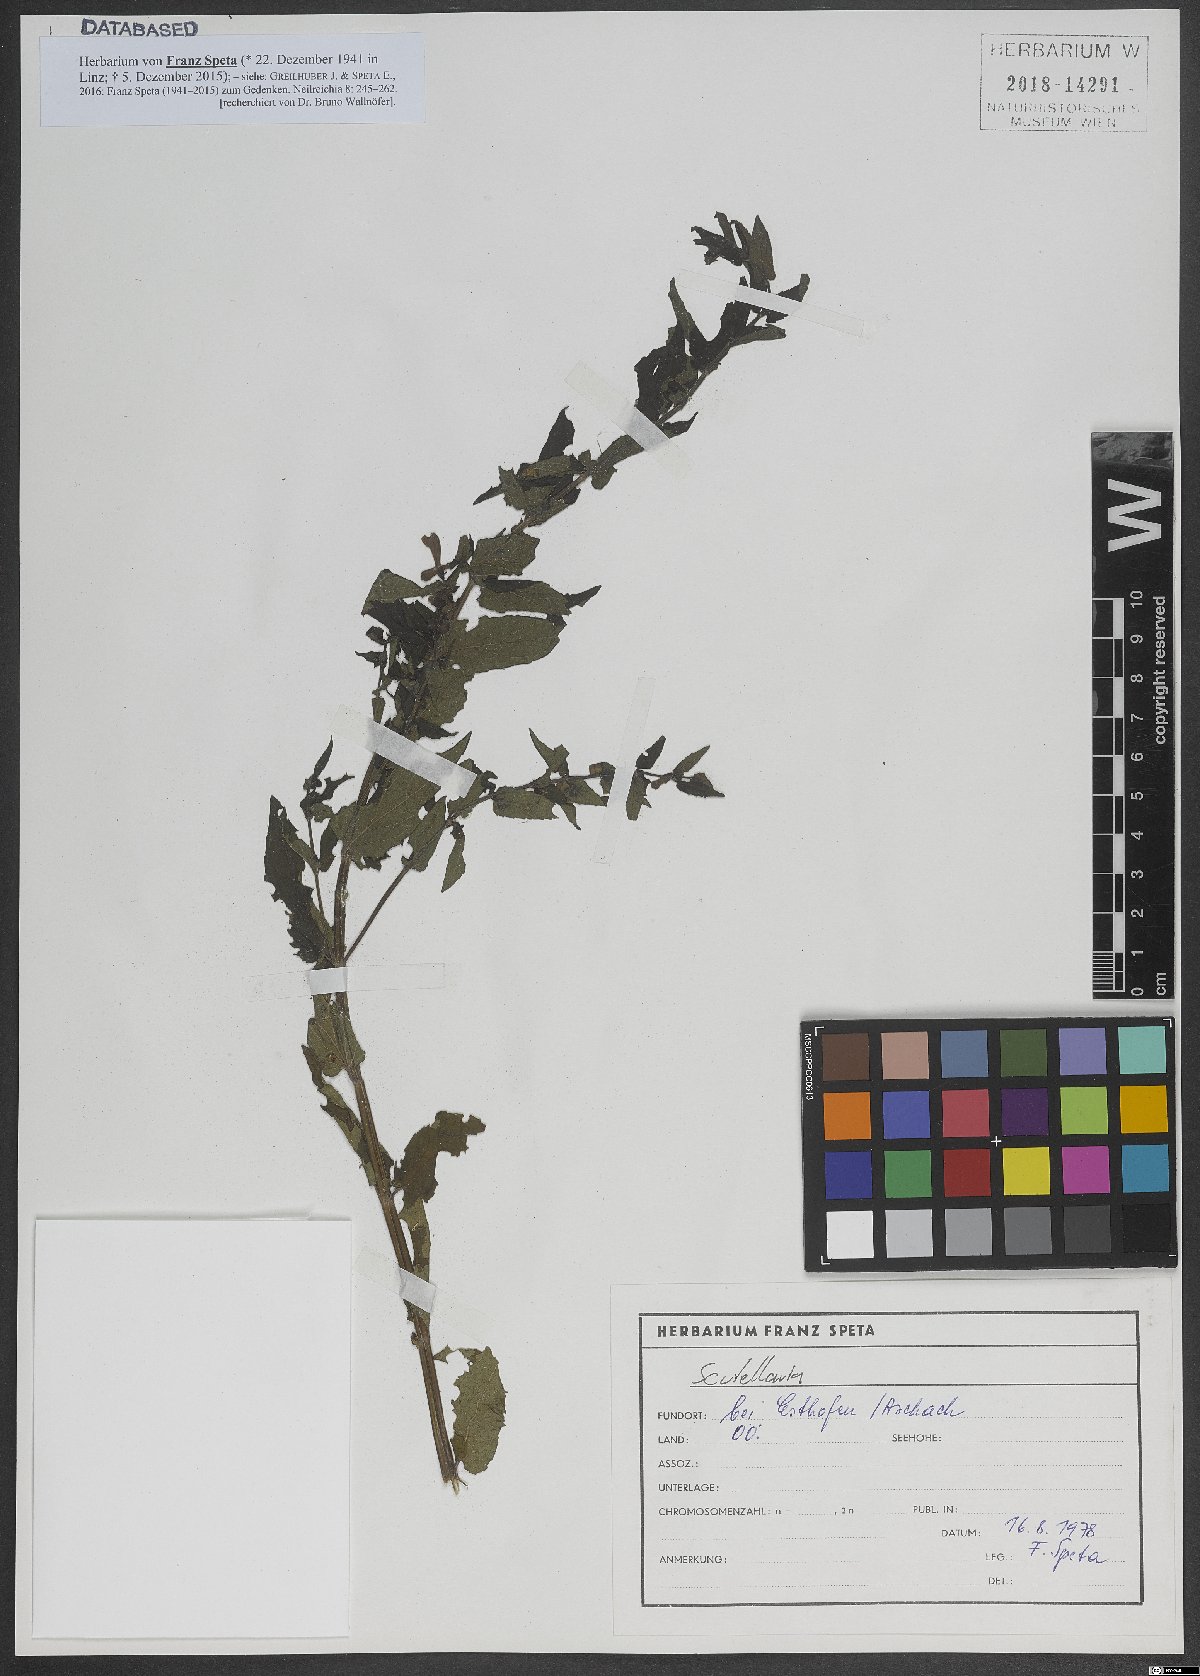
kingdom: Plantae
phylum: Tracheophyta
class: Liliopsida
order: Alismatales
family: Alismataceae
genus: Alisma
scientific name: Alisma
